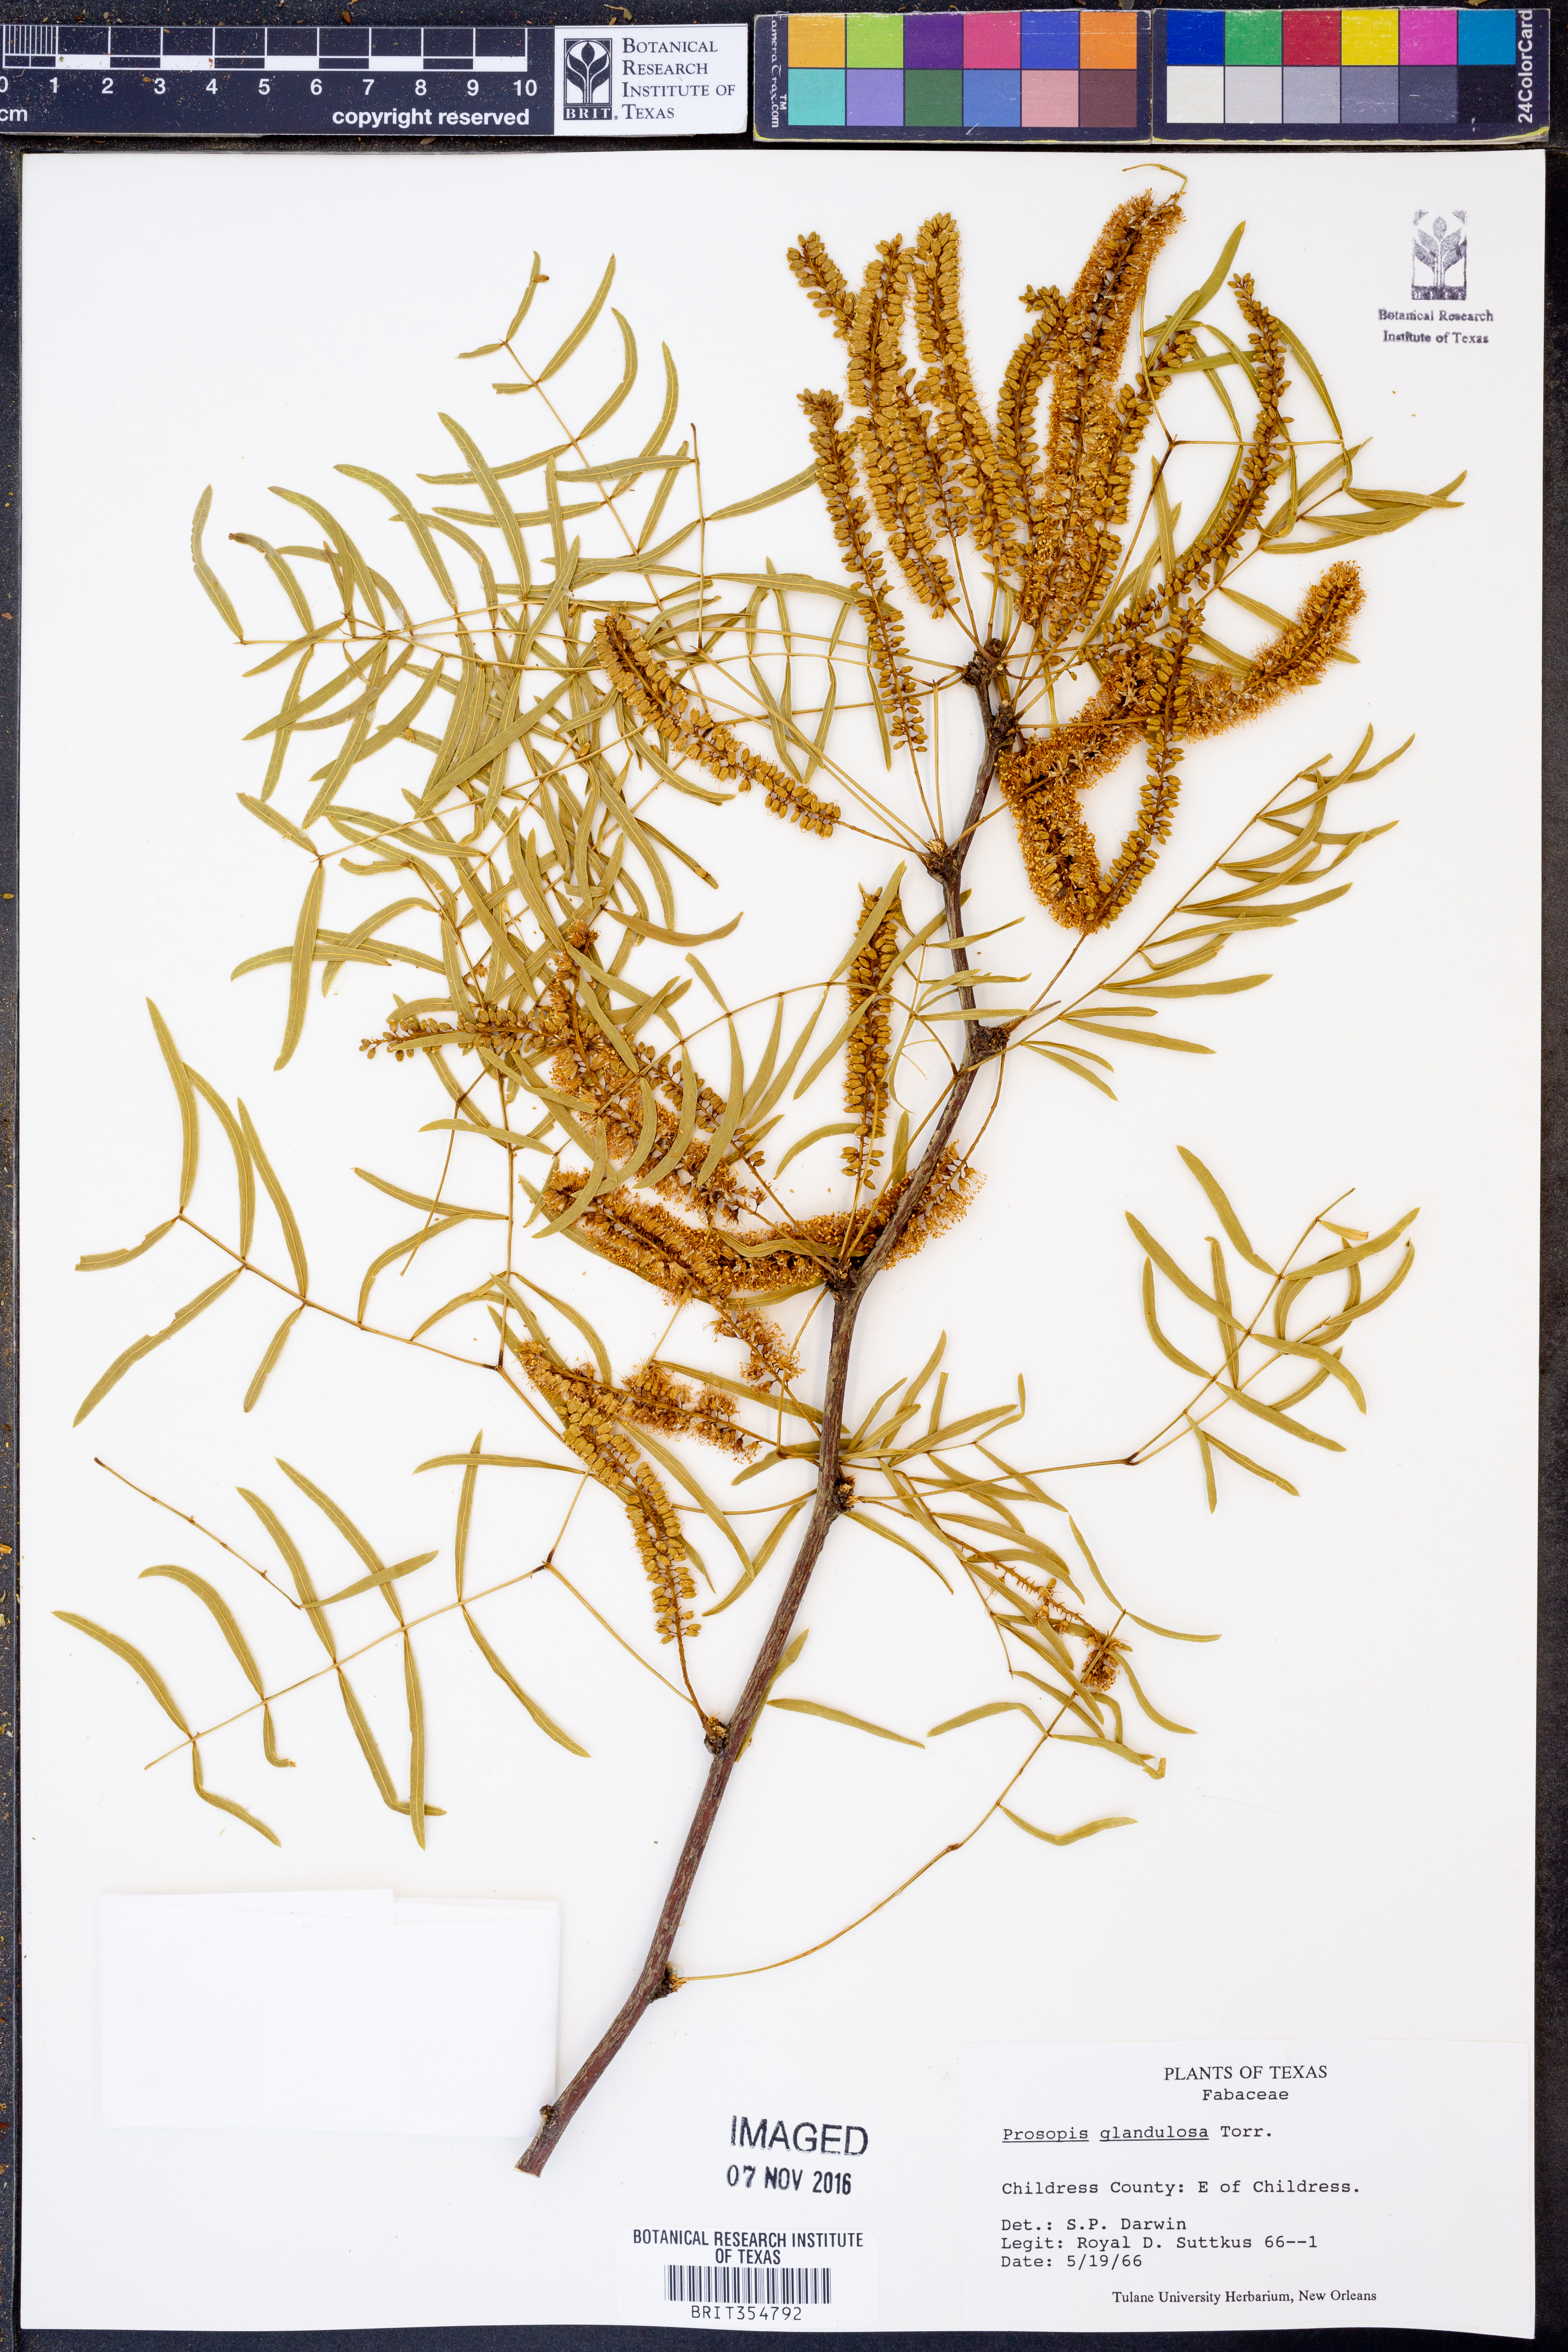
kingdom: Plantae
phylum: Tracheophyta
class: Magnoliopsida
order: Fabales
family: Fabaceae
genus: Prosopis
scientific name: Prosopis glandulosa
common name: Honey mesquite
